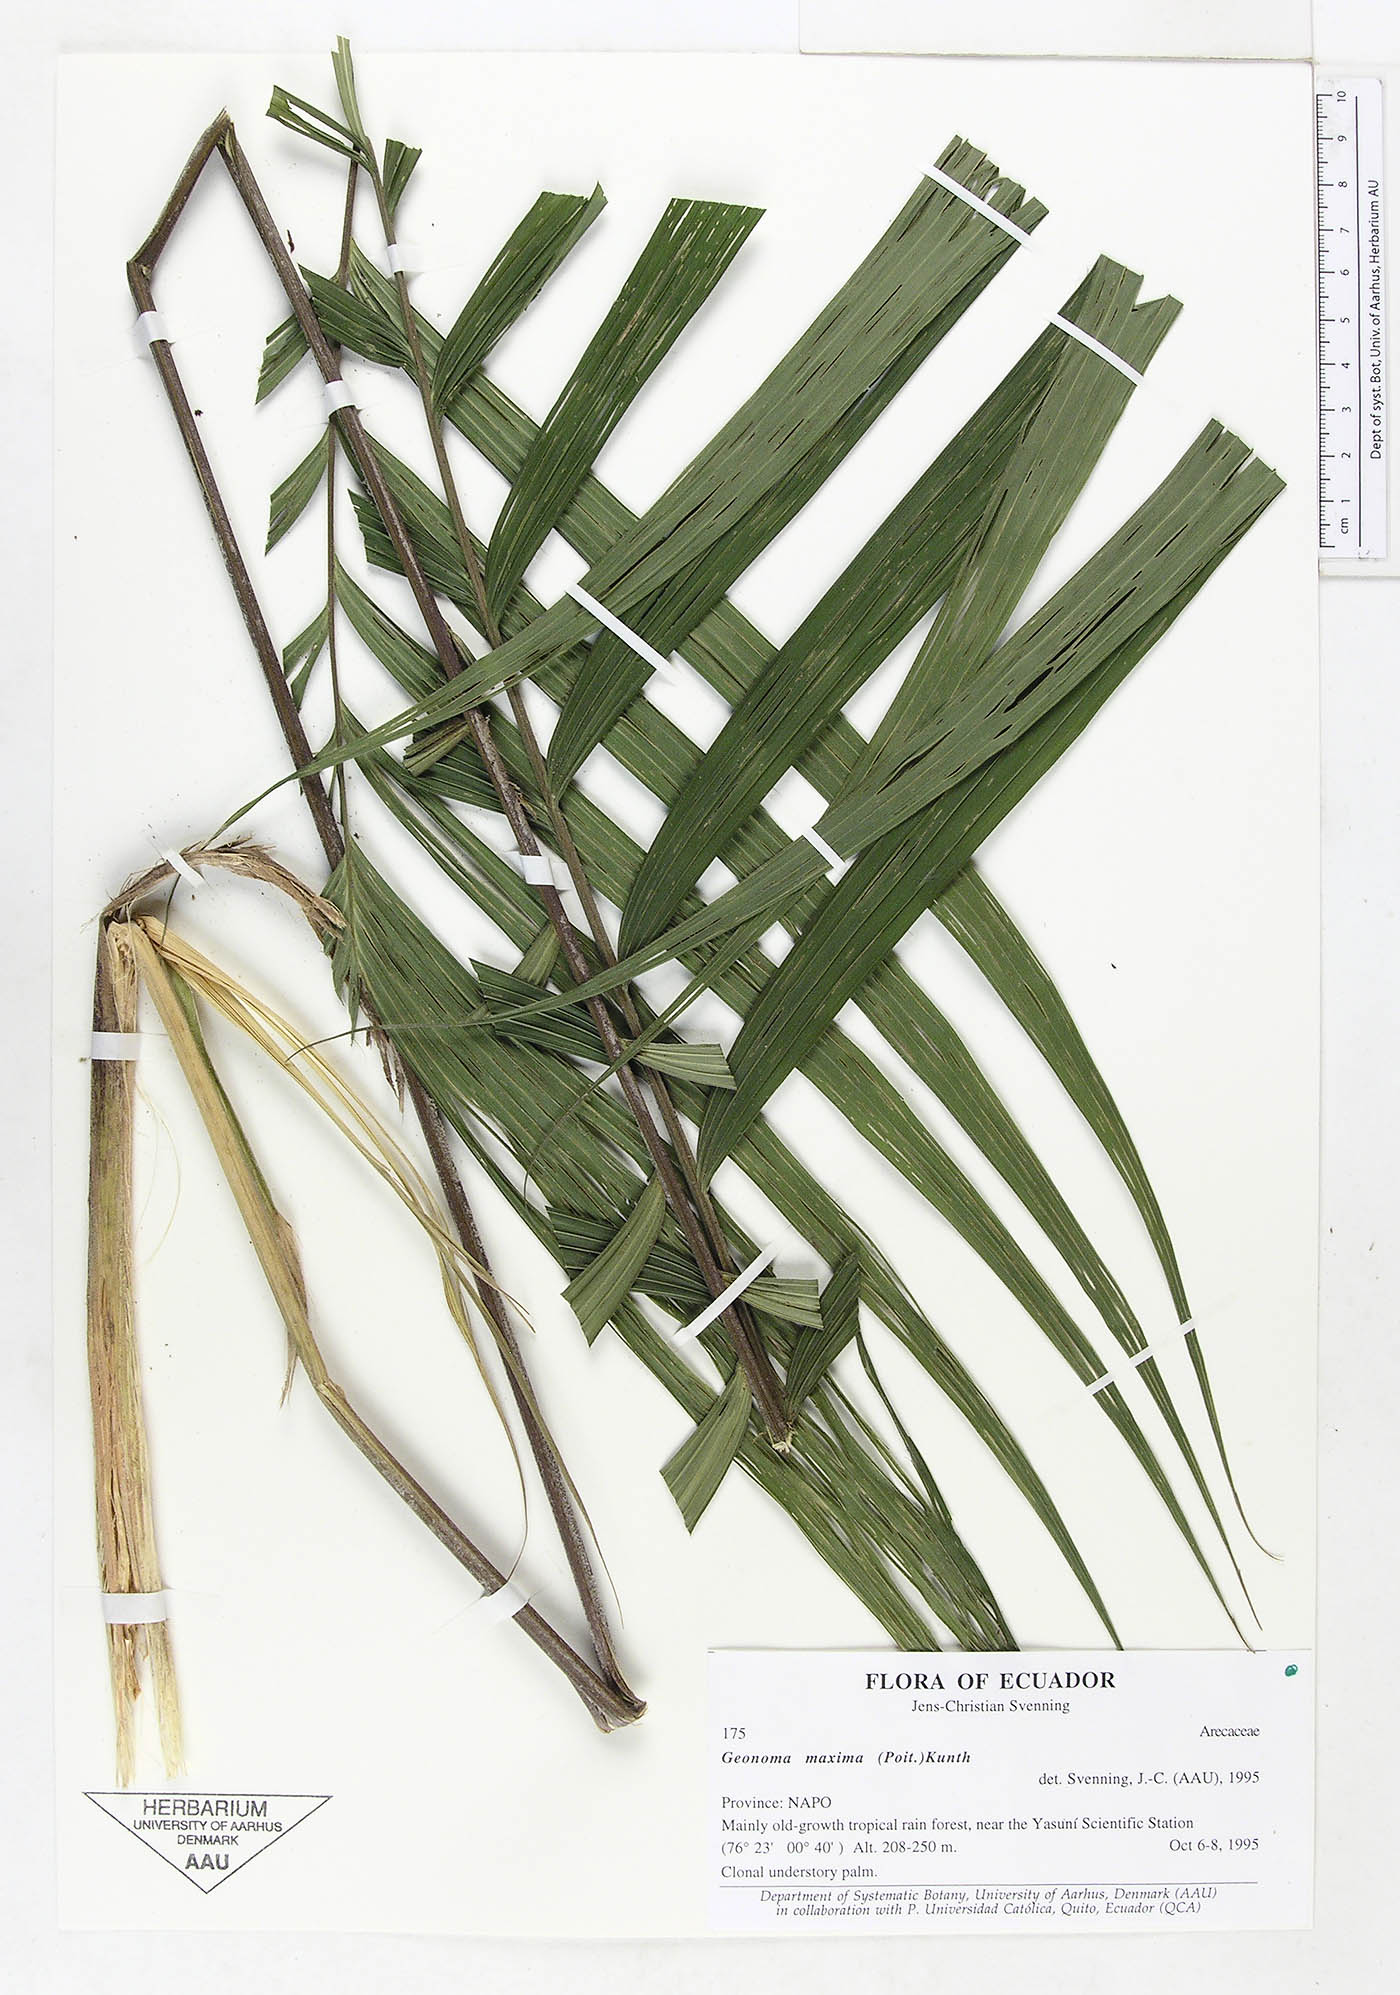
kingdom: Plantae
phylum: Tracheophyta
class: Liliopsida
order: Arecales
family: Arecaceae
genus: Geonoma
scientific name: Geonoma maxima
